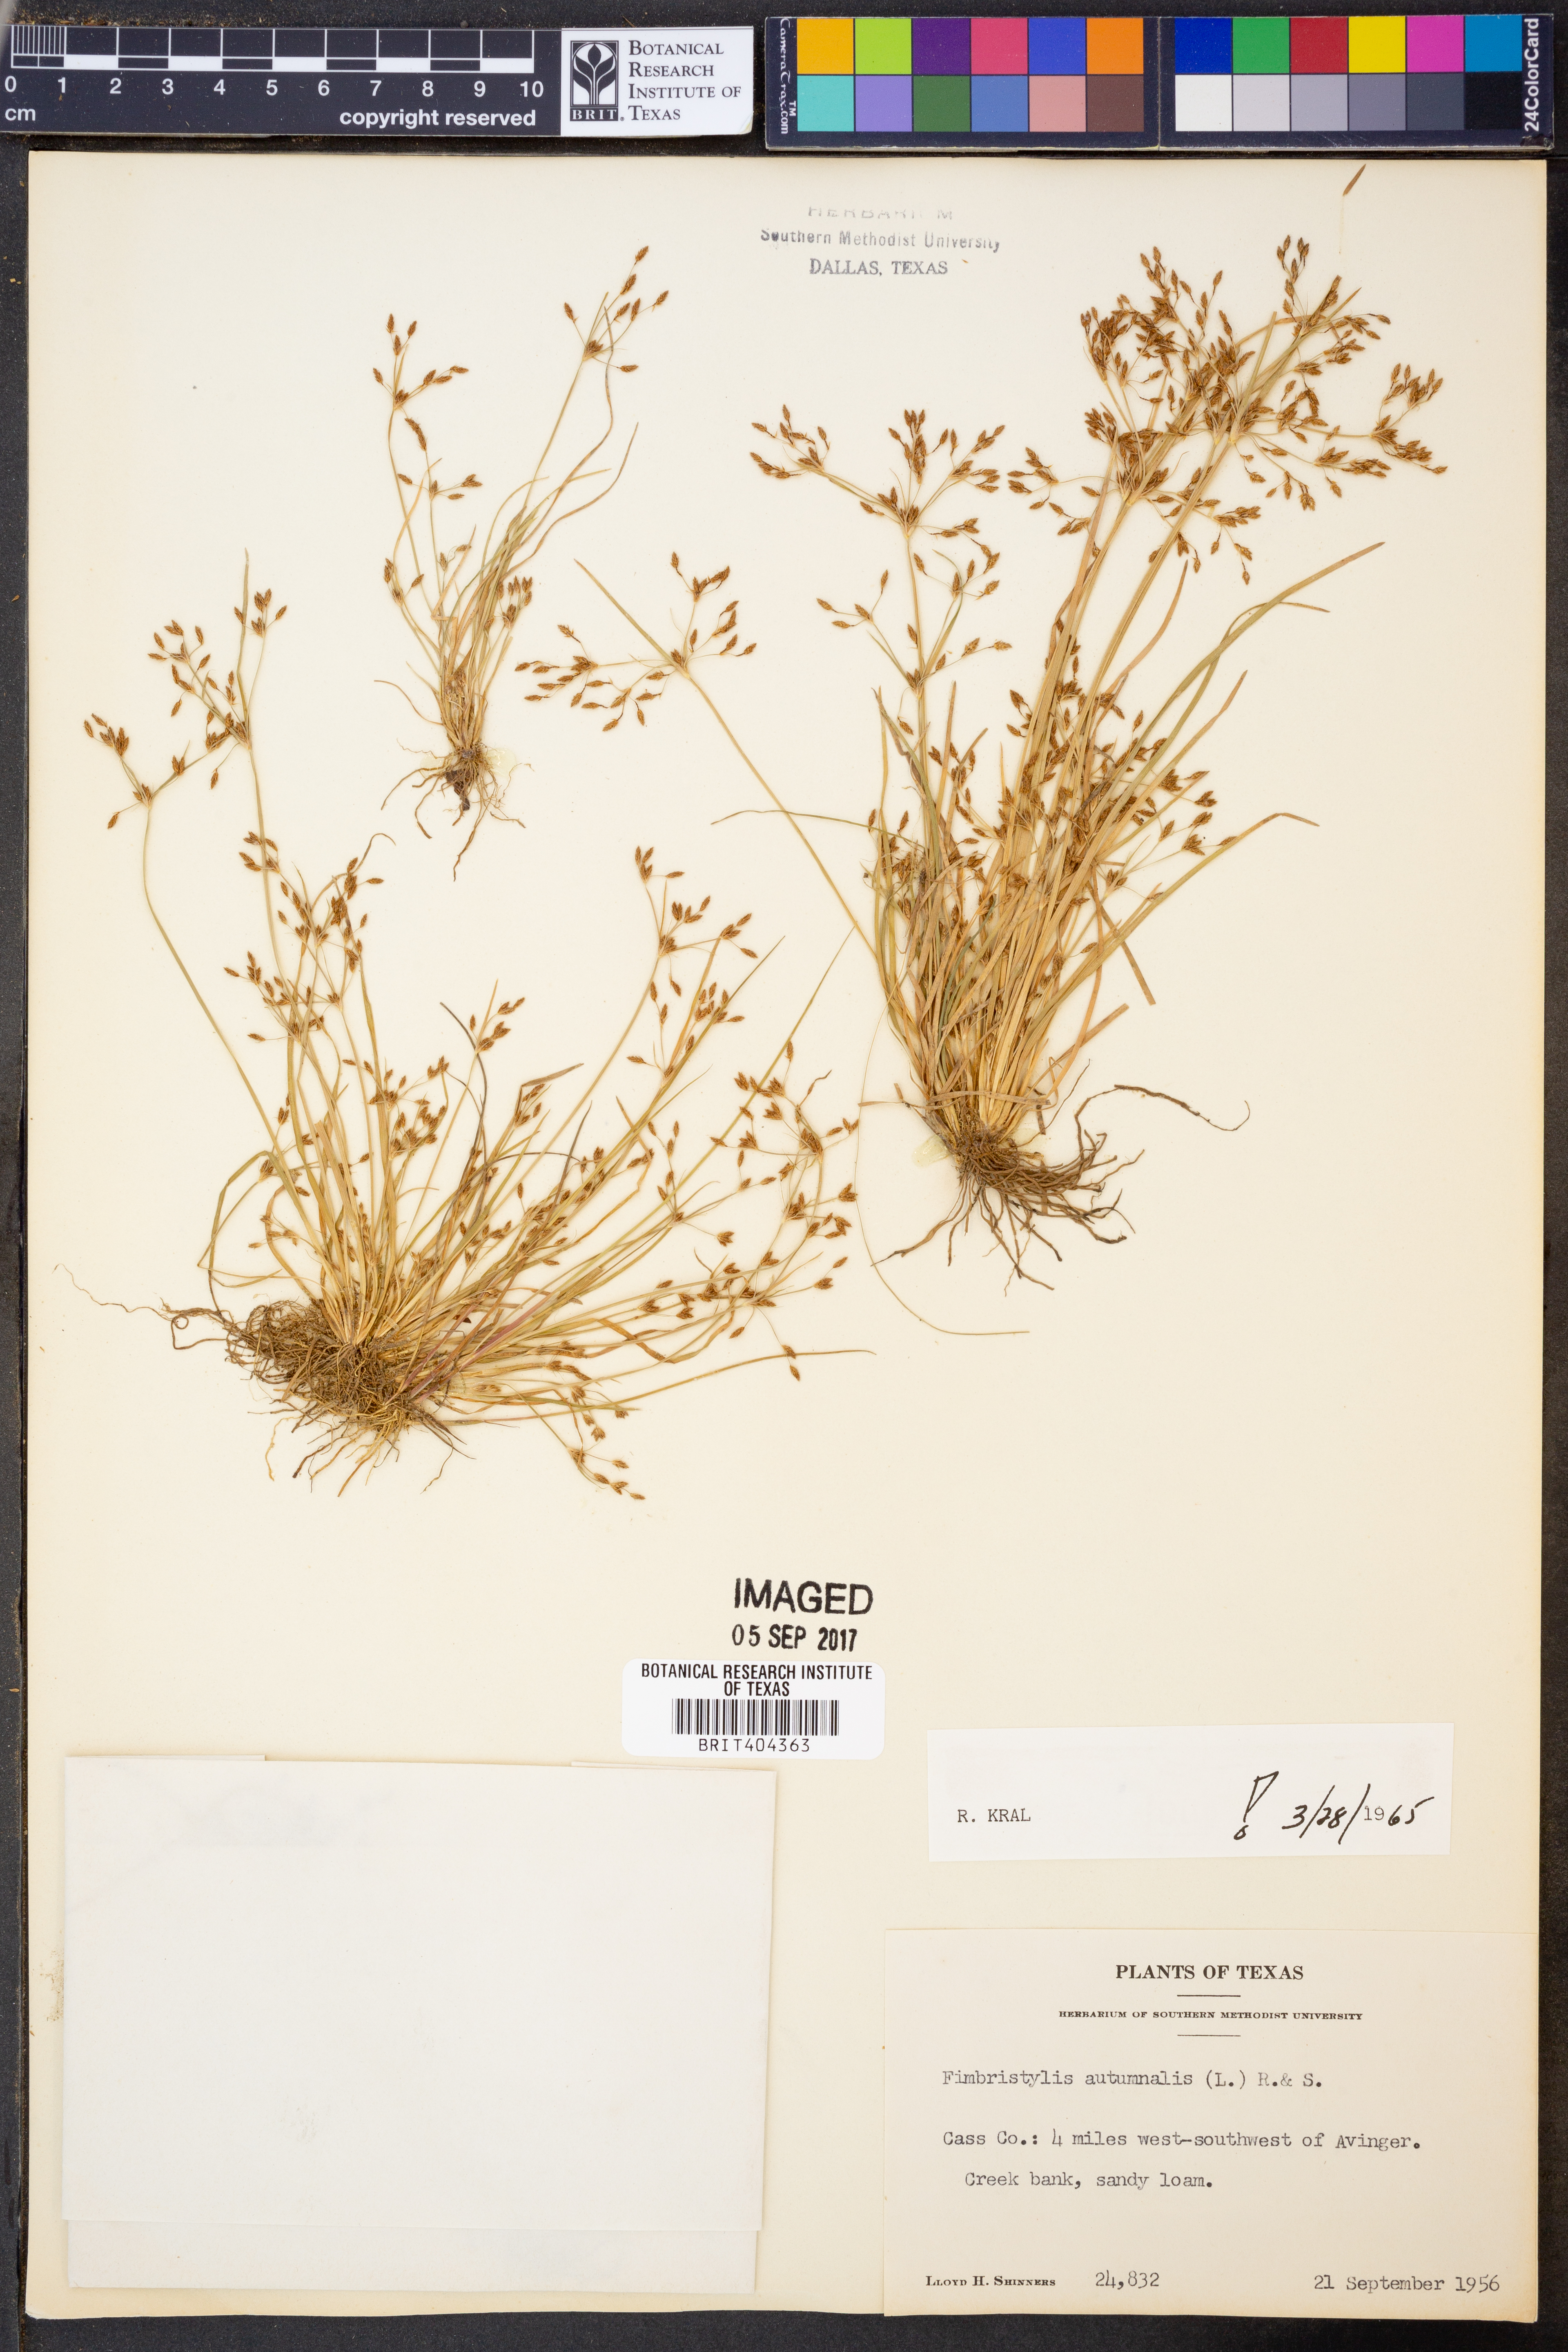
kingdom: Plantae
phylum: Tracheophyta
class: Liliopsida
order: Poales
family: Cyperaceae
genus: Fimbristylis
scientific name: Fimbristylis autumnalis
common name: Slender fimbristylis
